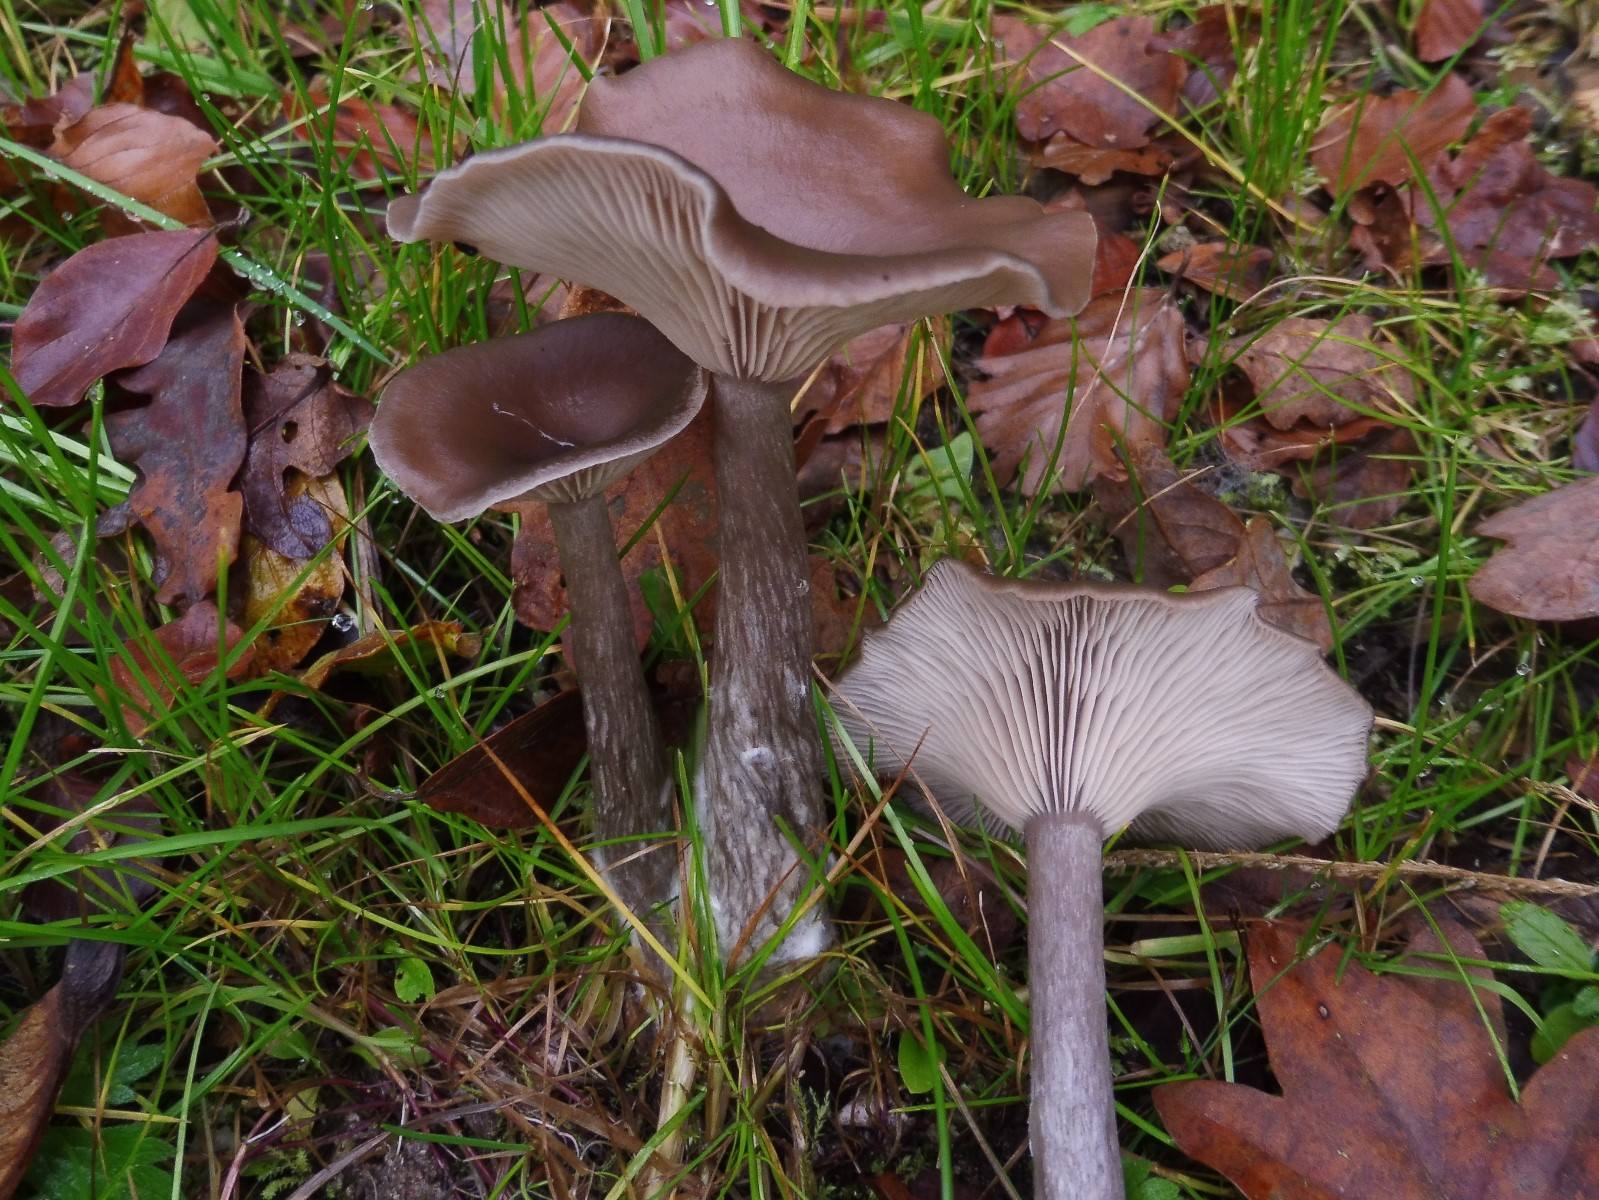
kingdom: Fungi
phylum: Basidiomycota
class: Agaricomycetes
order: Agaricales
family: Pseudoclitocybaceae
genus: Pseudoclitocybe
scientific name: Pseudoclitocybe cyathiformis
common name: almindelig bægertragthat
